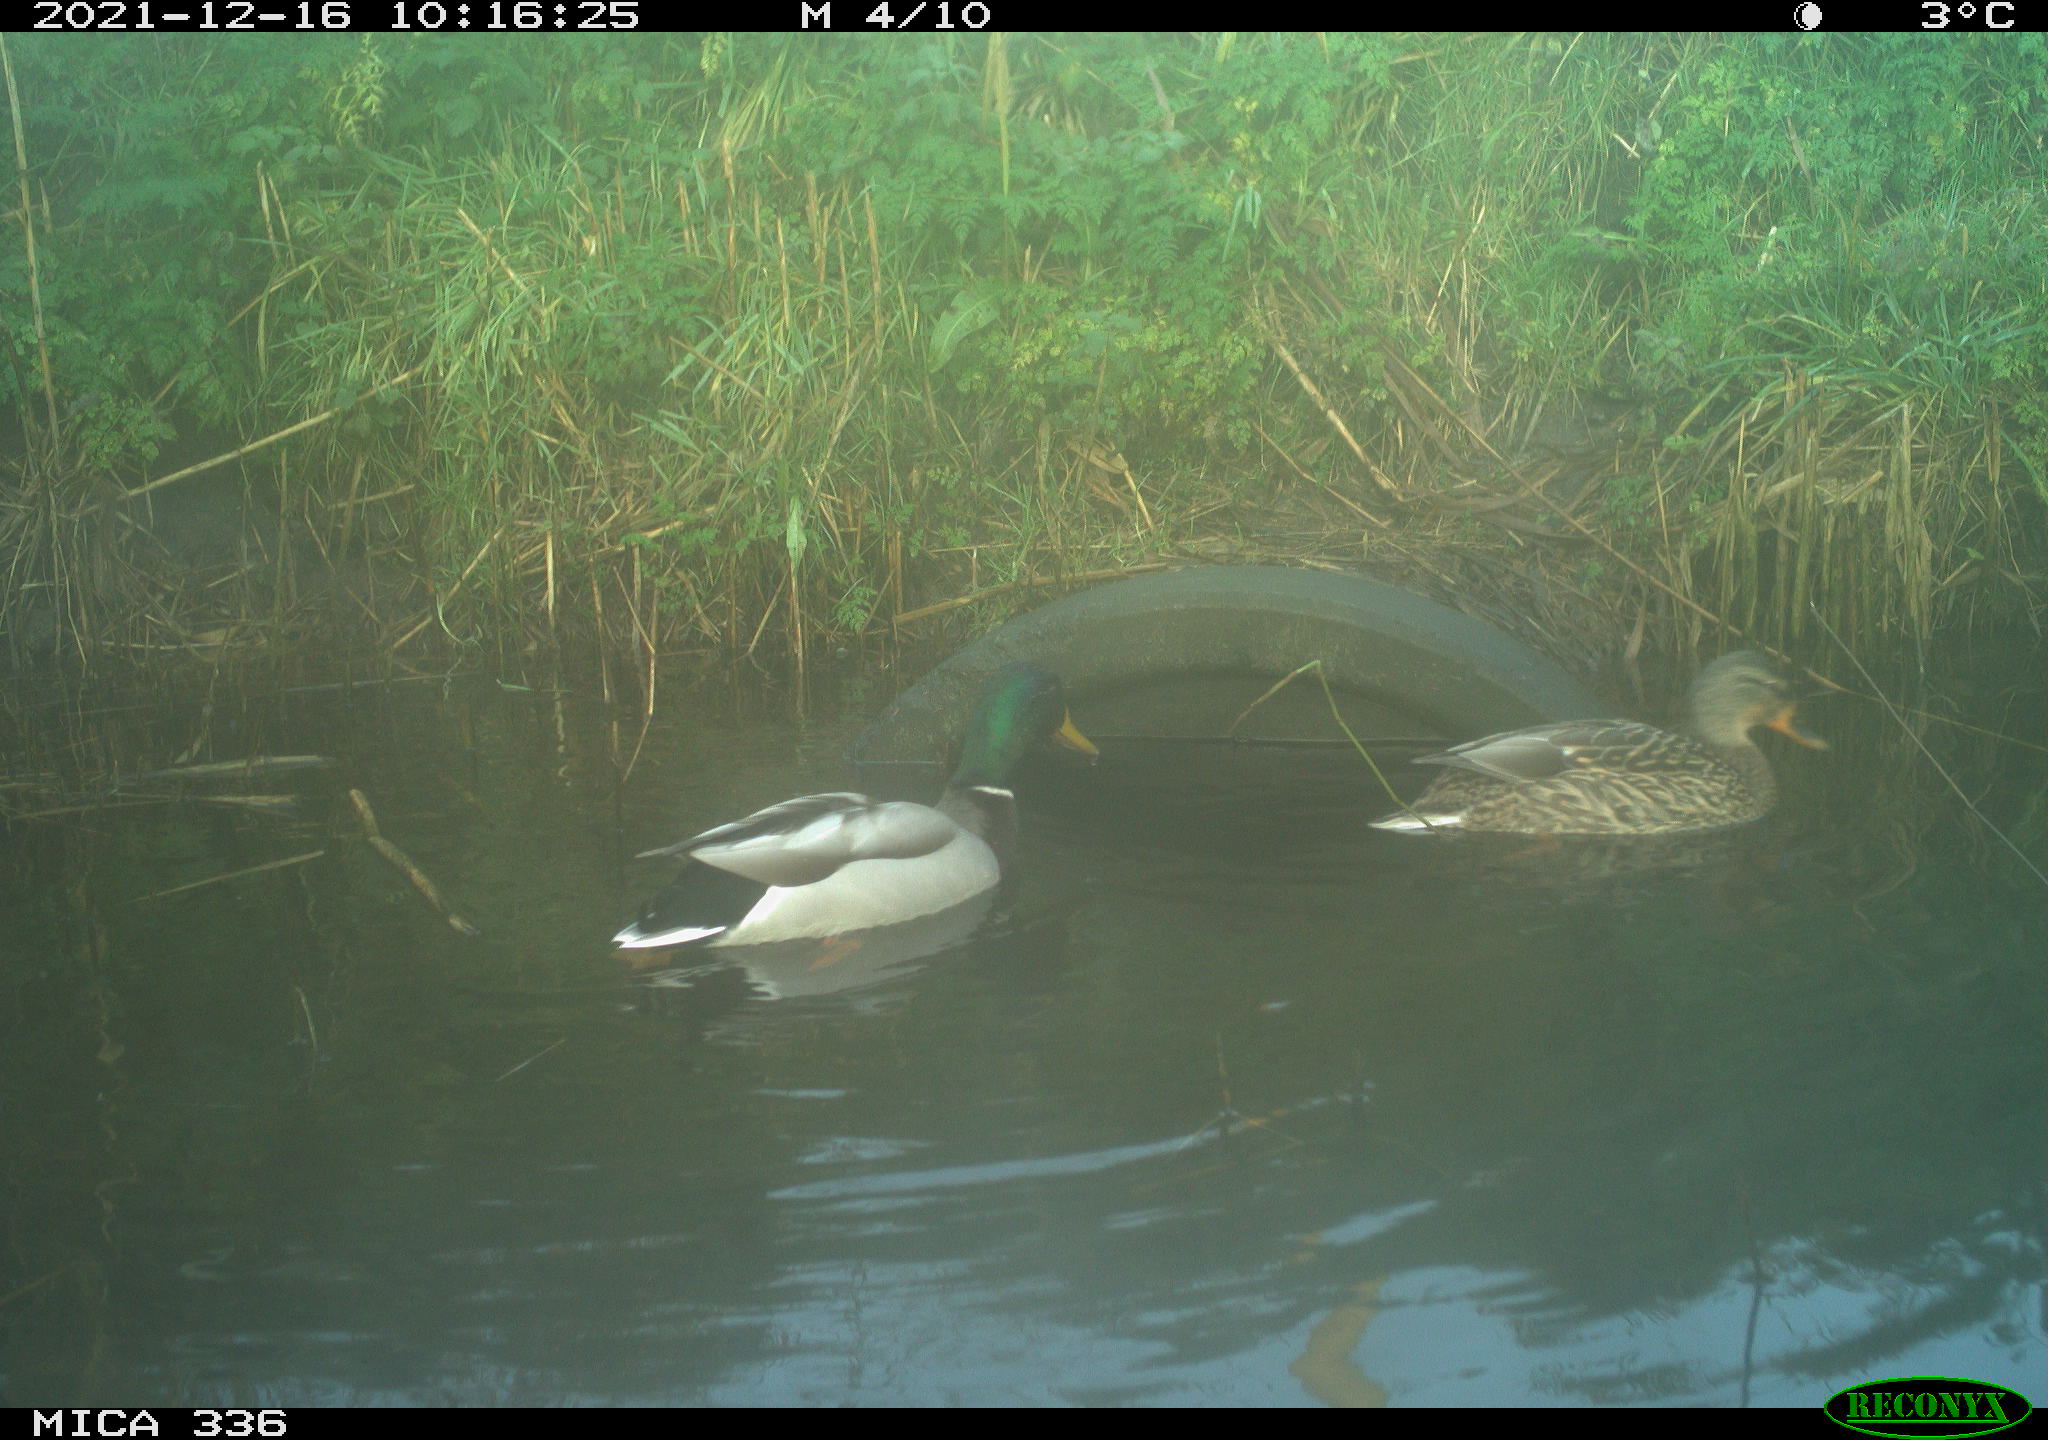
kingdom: Animalia
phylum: Chordata
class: Aves
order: Anseriformes
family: Anatidae
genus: Anas
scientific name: Anas platyrhynchos
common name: Mallard
